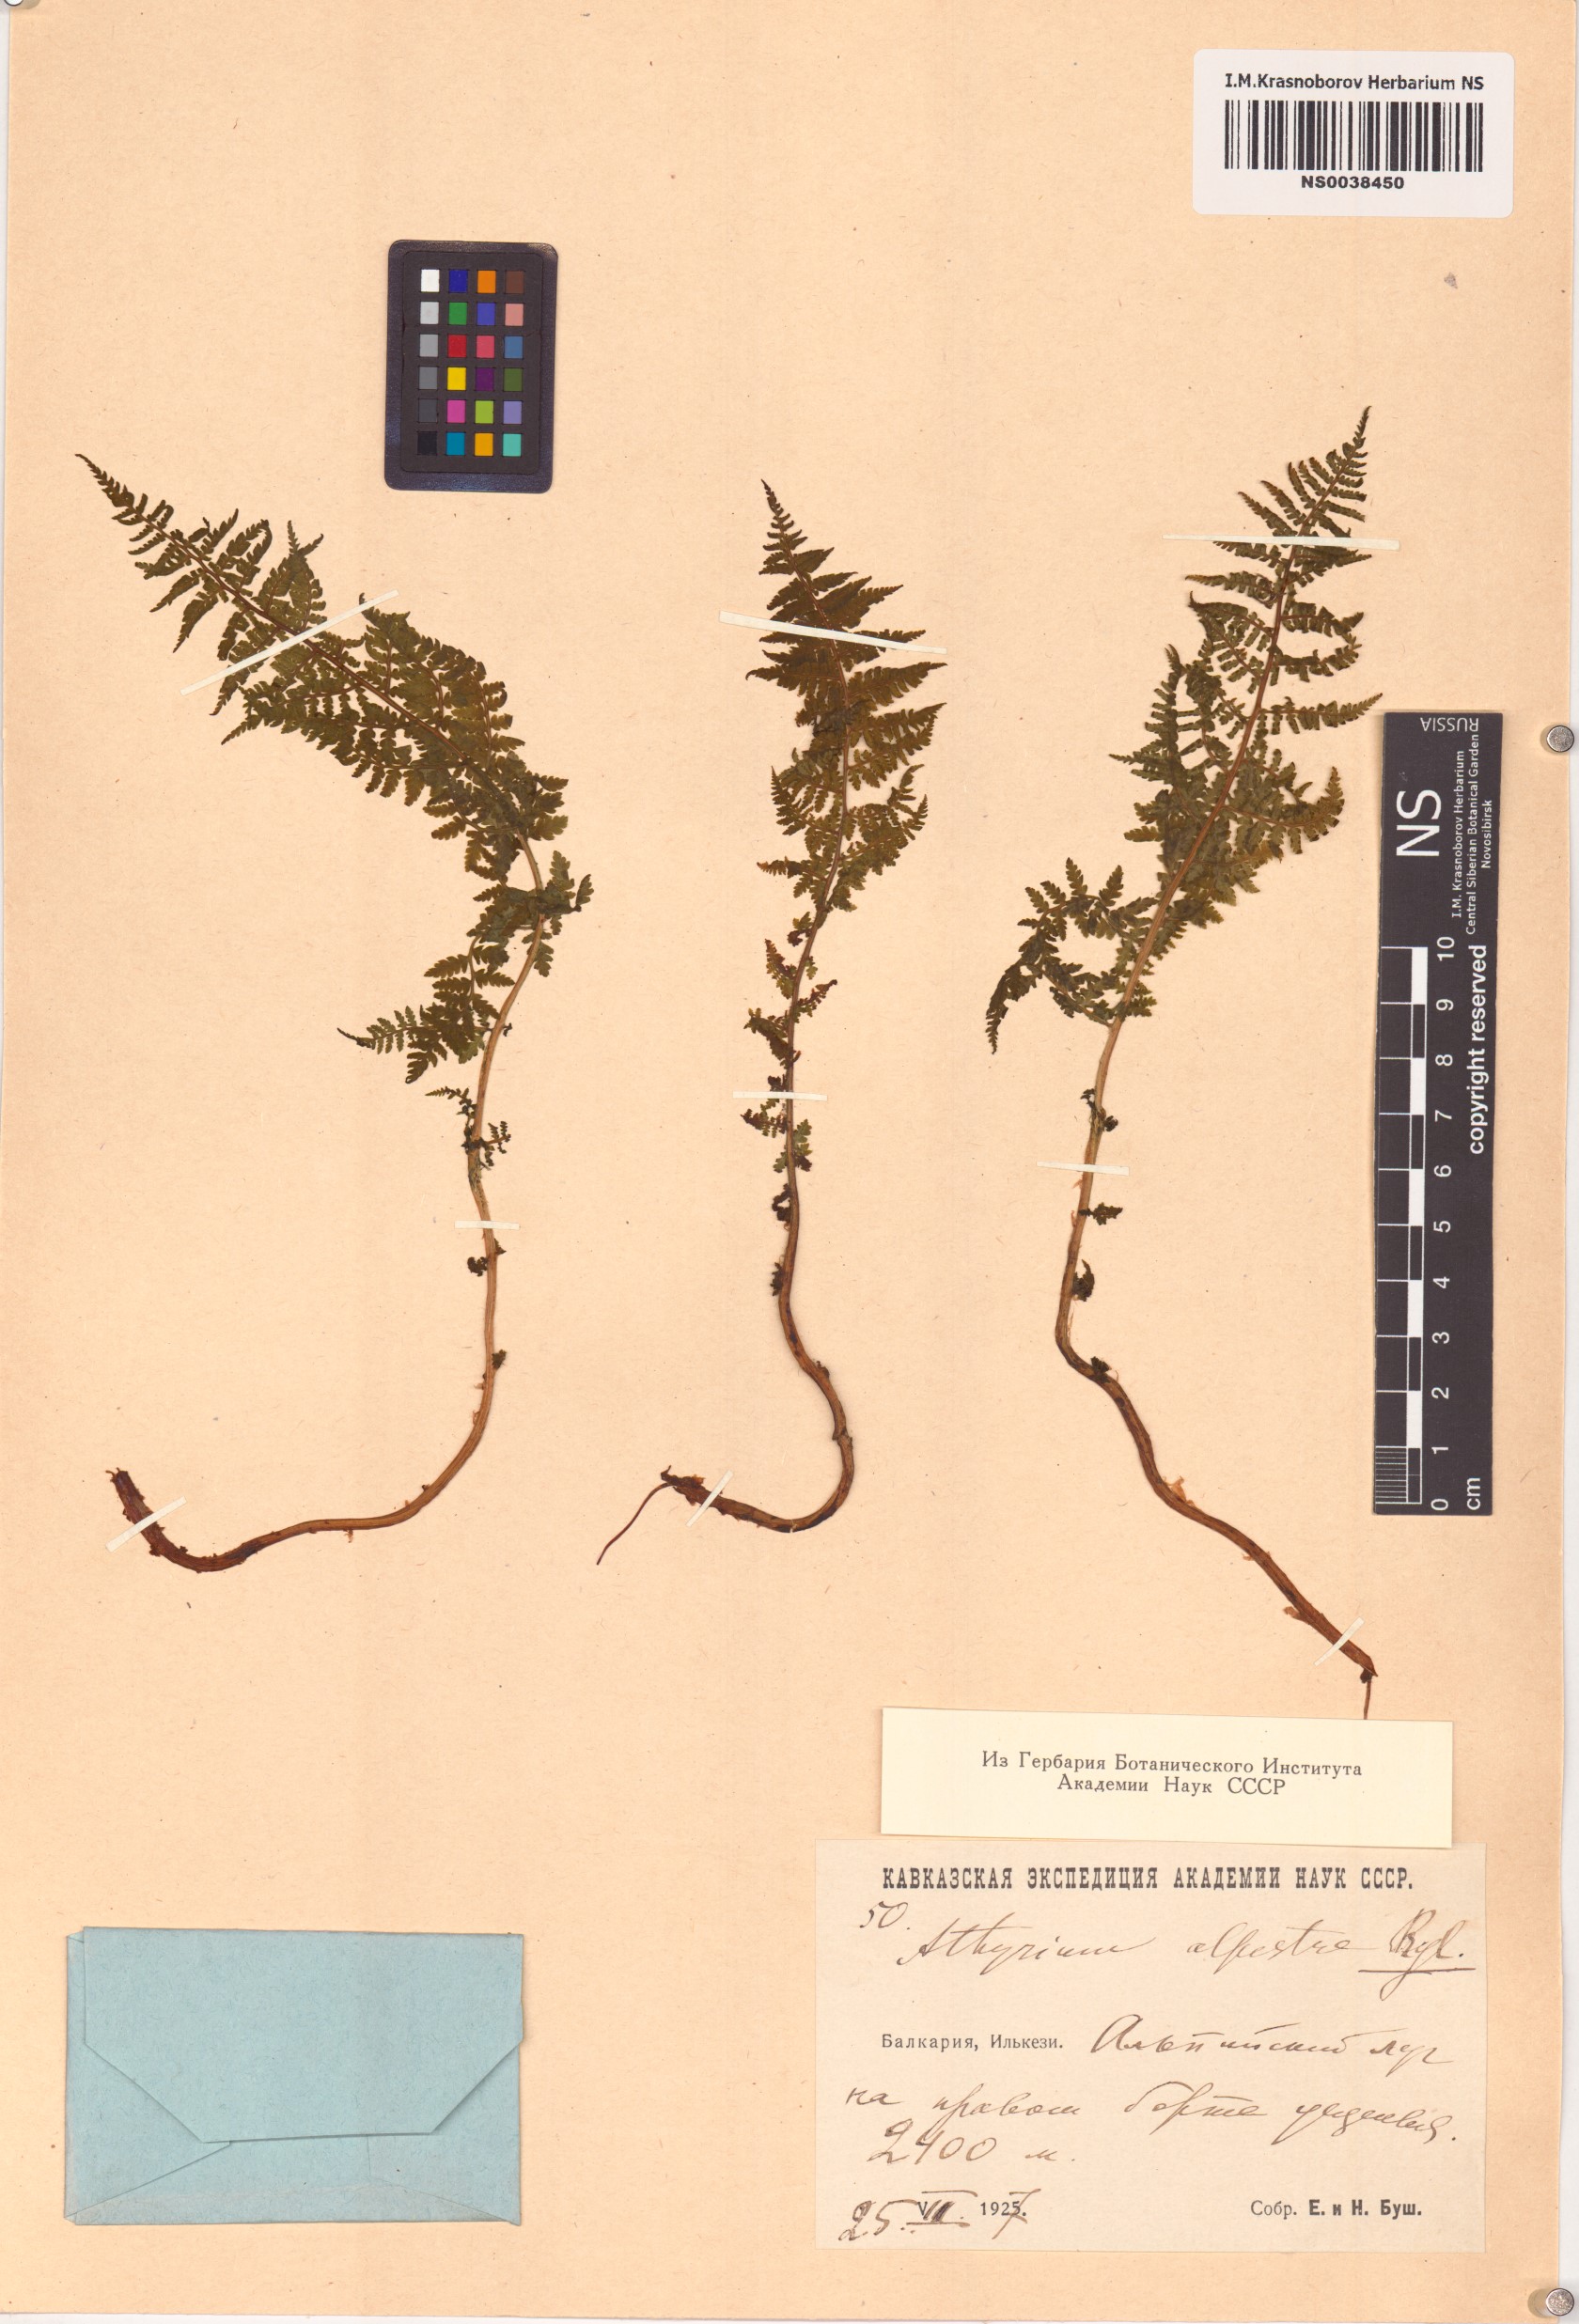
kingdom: Plantae
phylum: Tracheophyta
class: Polypodiopsida
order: Polypodiales
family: Athyriaceae
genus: Pseudathyrium
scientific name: Pseudathyrium alpestre
